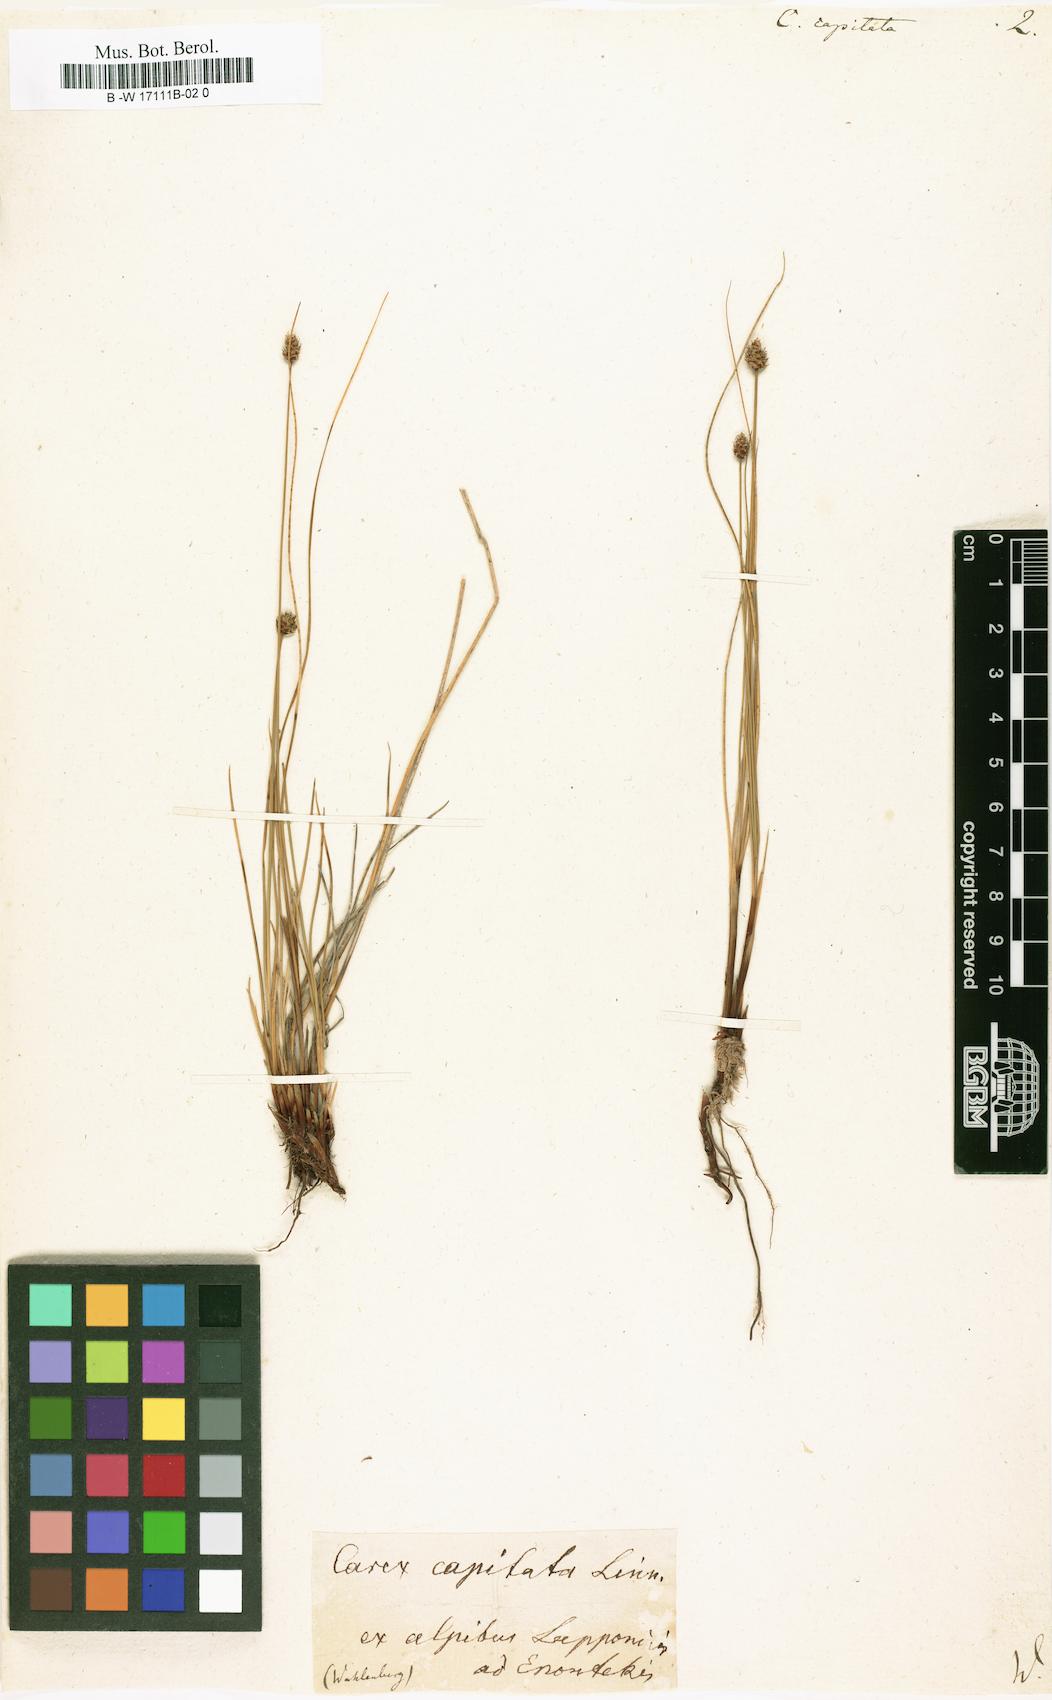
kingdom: Plantae
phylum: Tracheophyta
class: Liliopsida
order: Poales
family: Cyperaceae
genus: Carex
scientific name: Carex capitata
